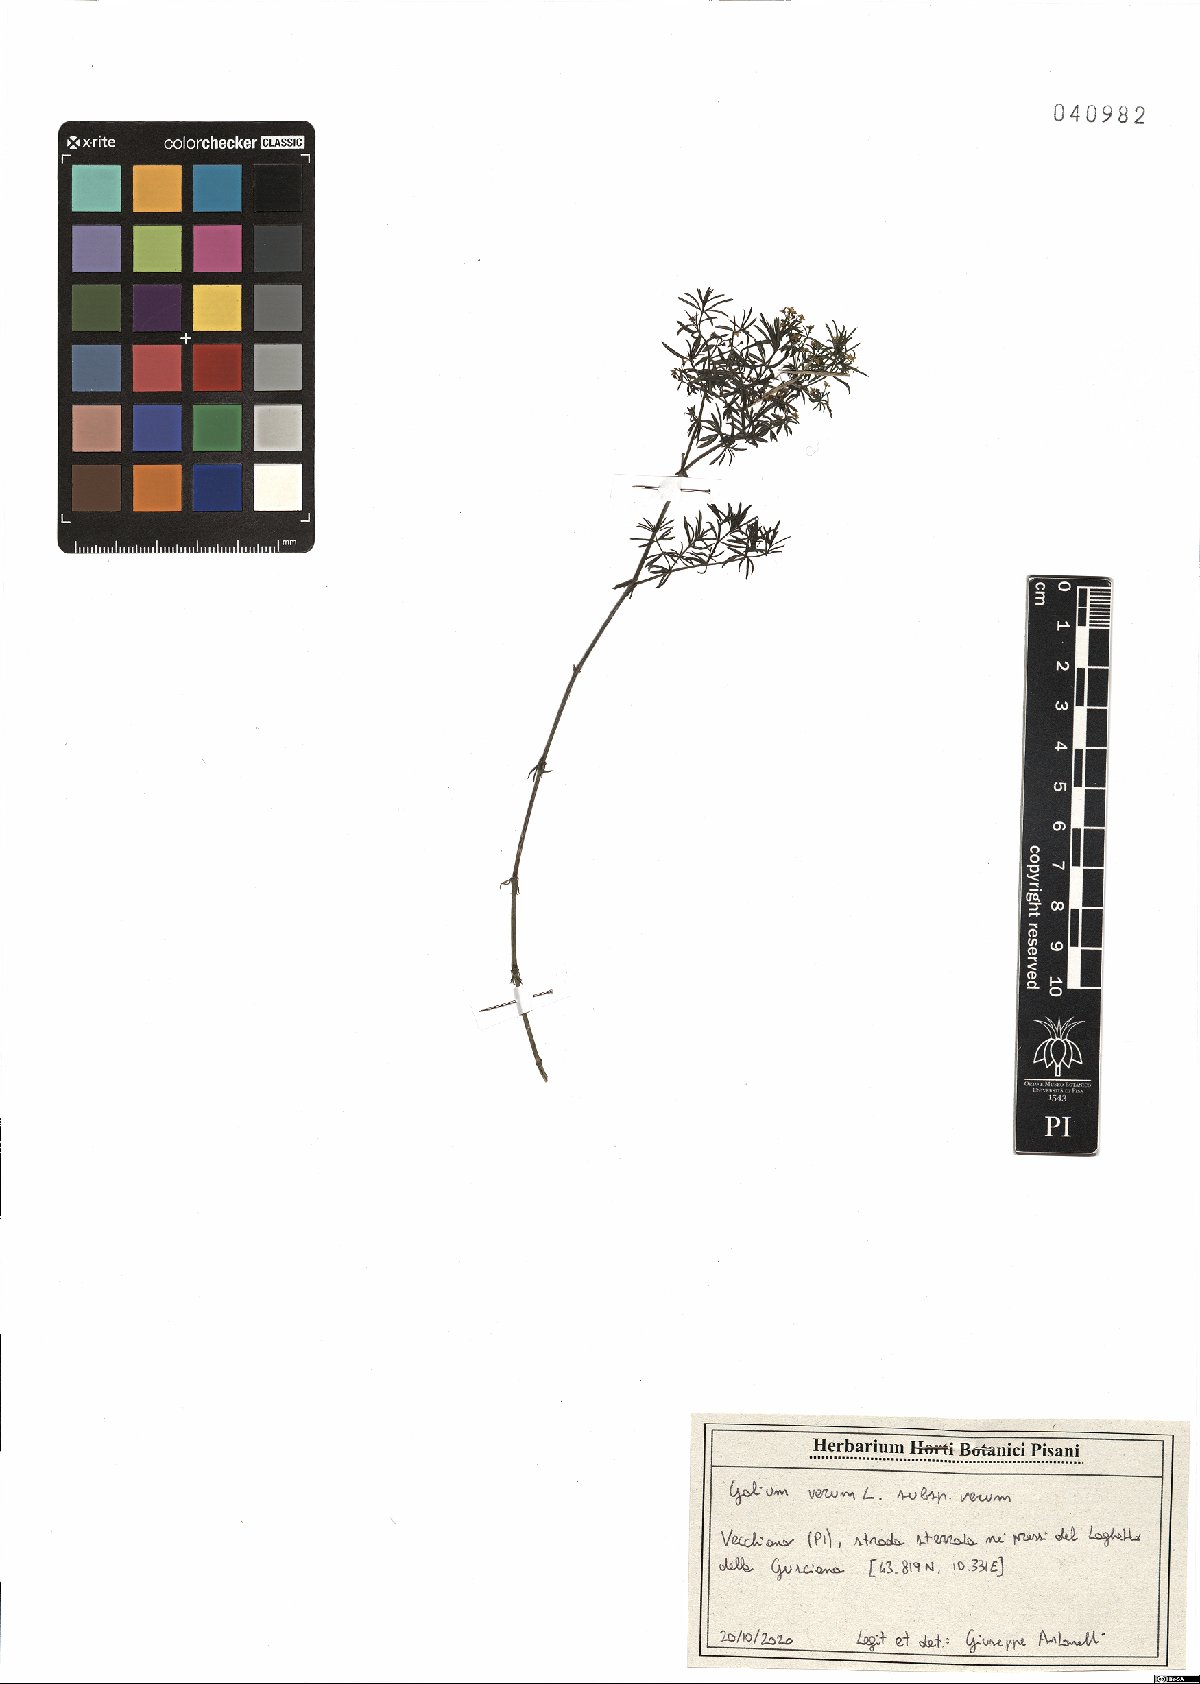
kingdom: Plantae
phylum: Tracheophyta
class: Magnoliopsida
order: Gentianales
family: Rubiaceae
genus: Galium
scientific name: Galium verum
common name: Lady's bedstraw
